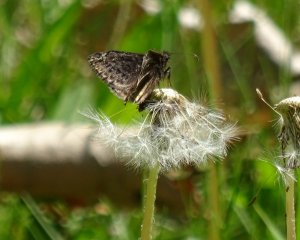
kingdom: Animalia
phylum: Arthropoda
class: Insecta
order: Lepidoptera
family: Hesperiidae
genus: Gesta
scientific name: Gesta
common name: Columbine Duskywing
